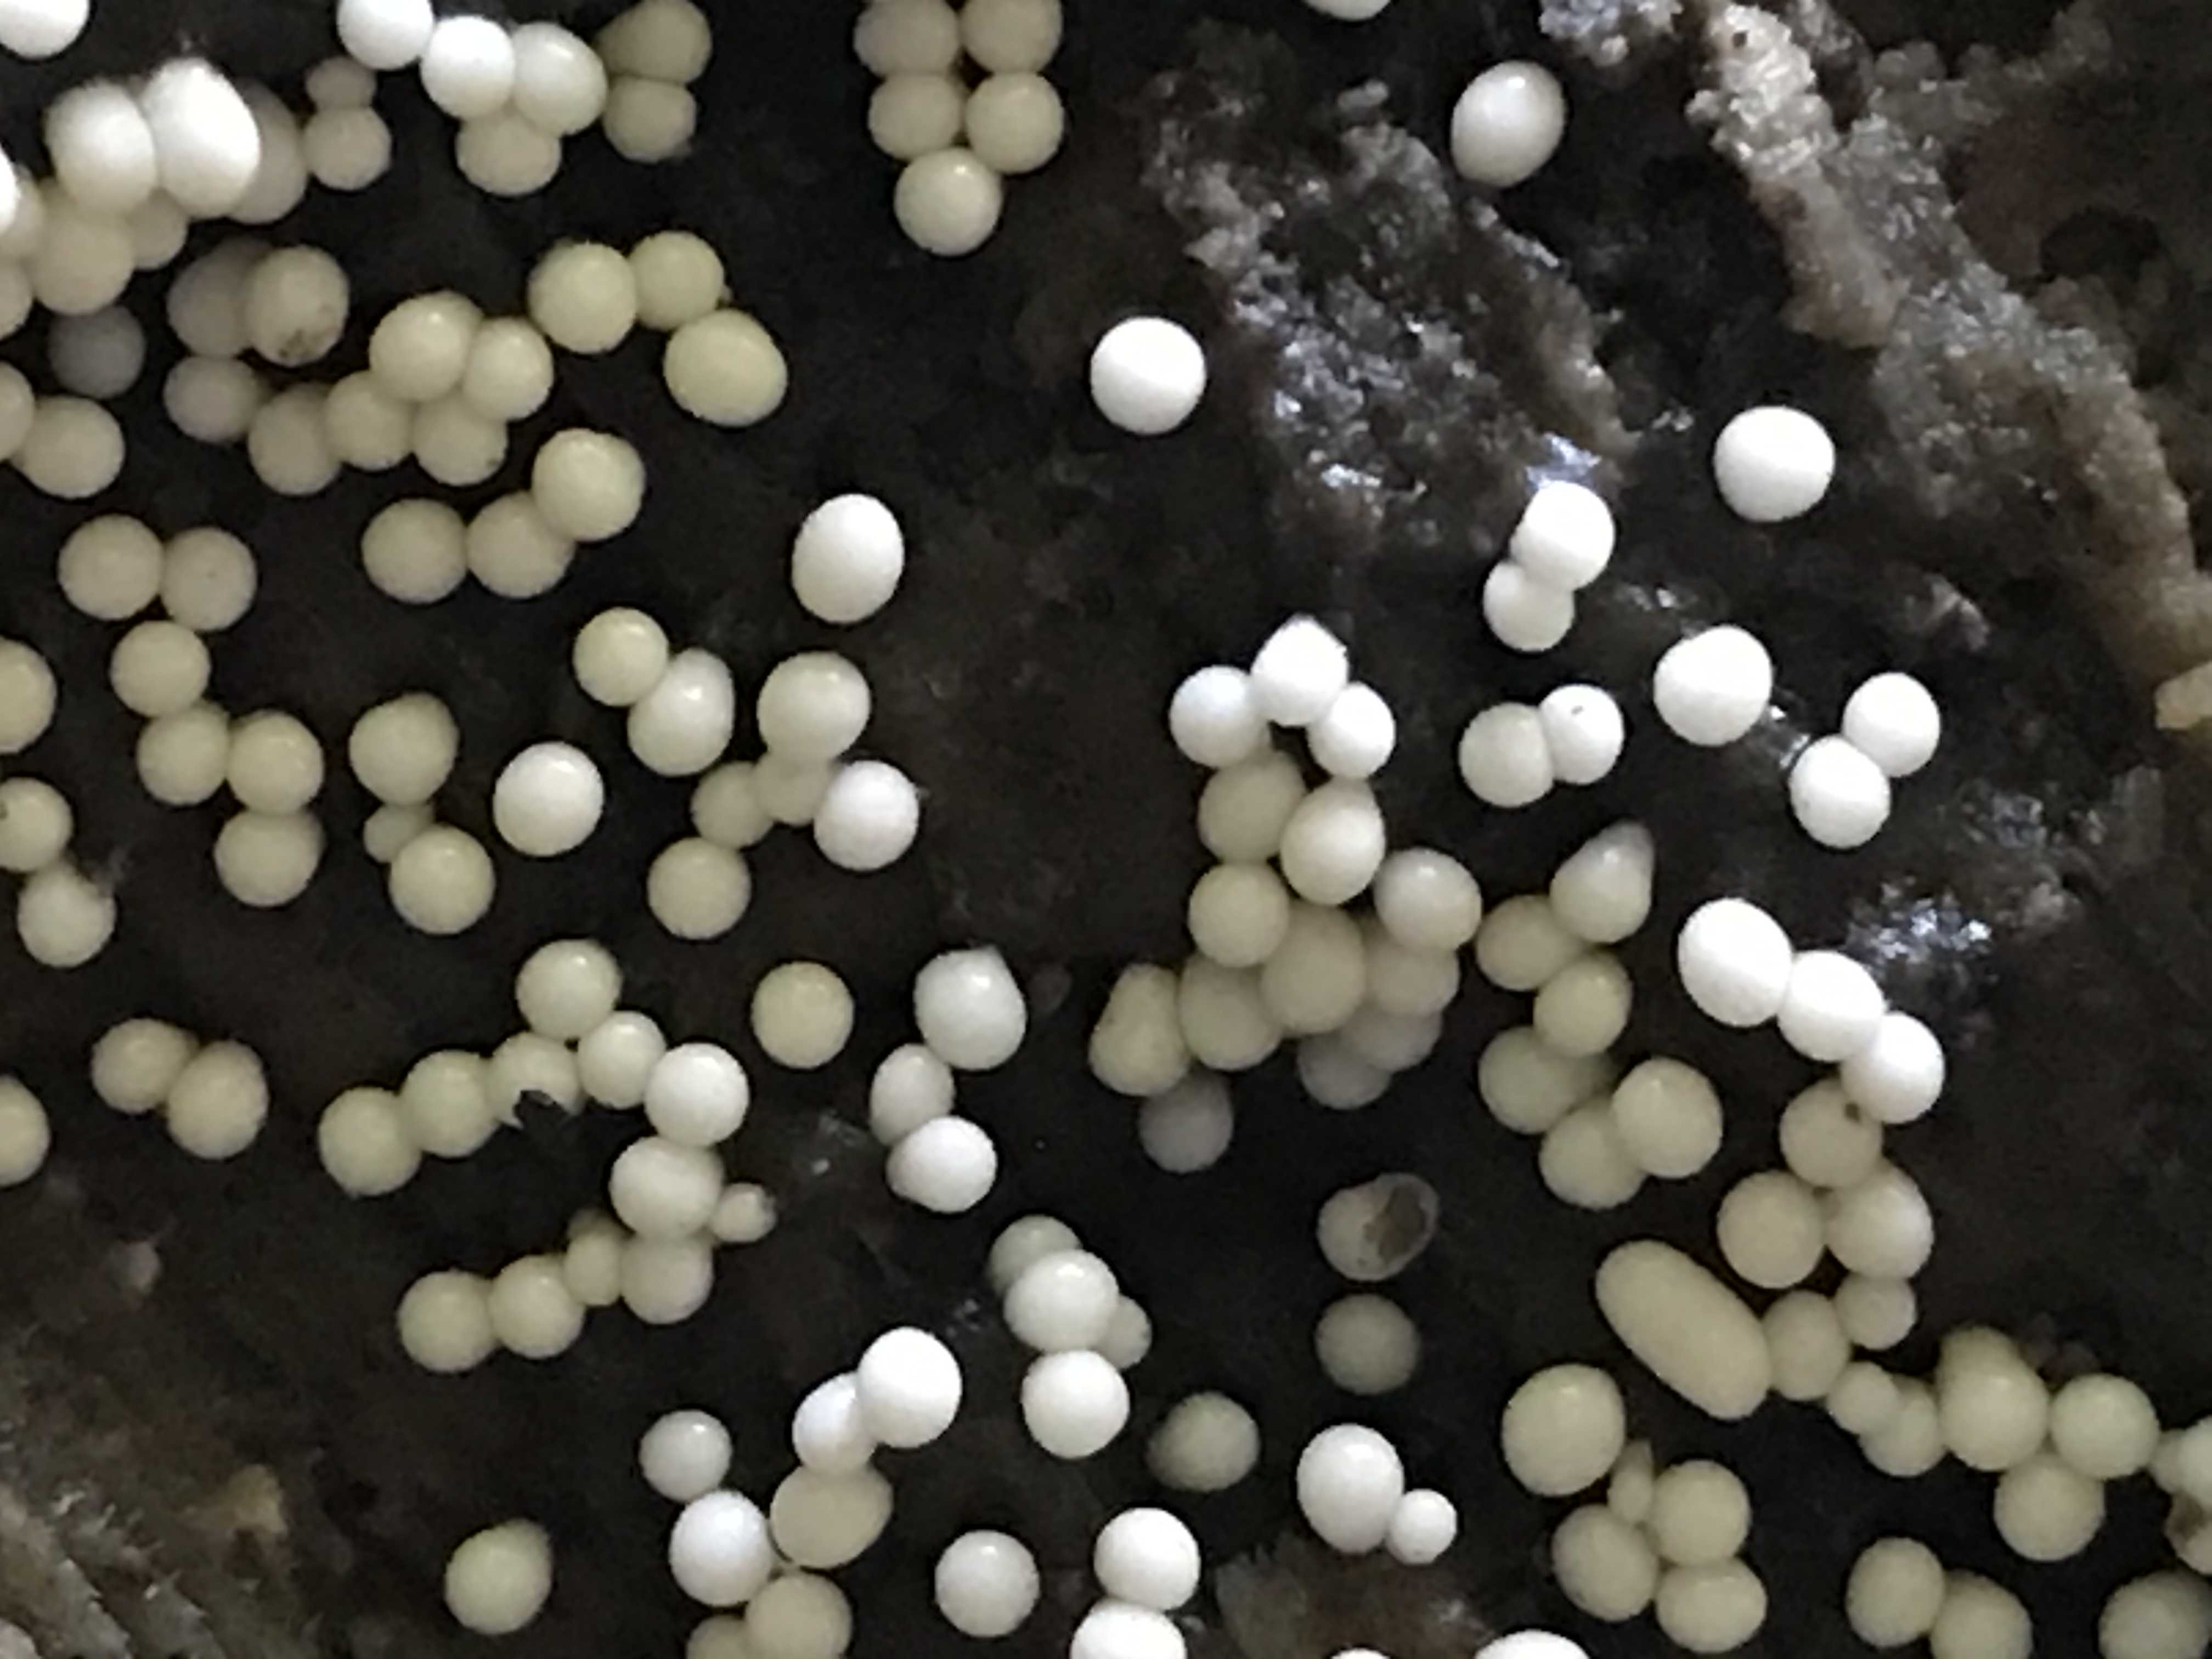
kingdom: Protozoa
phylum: Mycetozoa
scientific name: Mycetozoa
